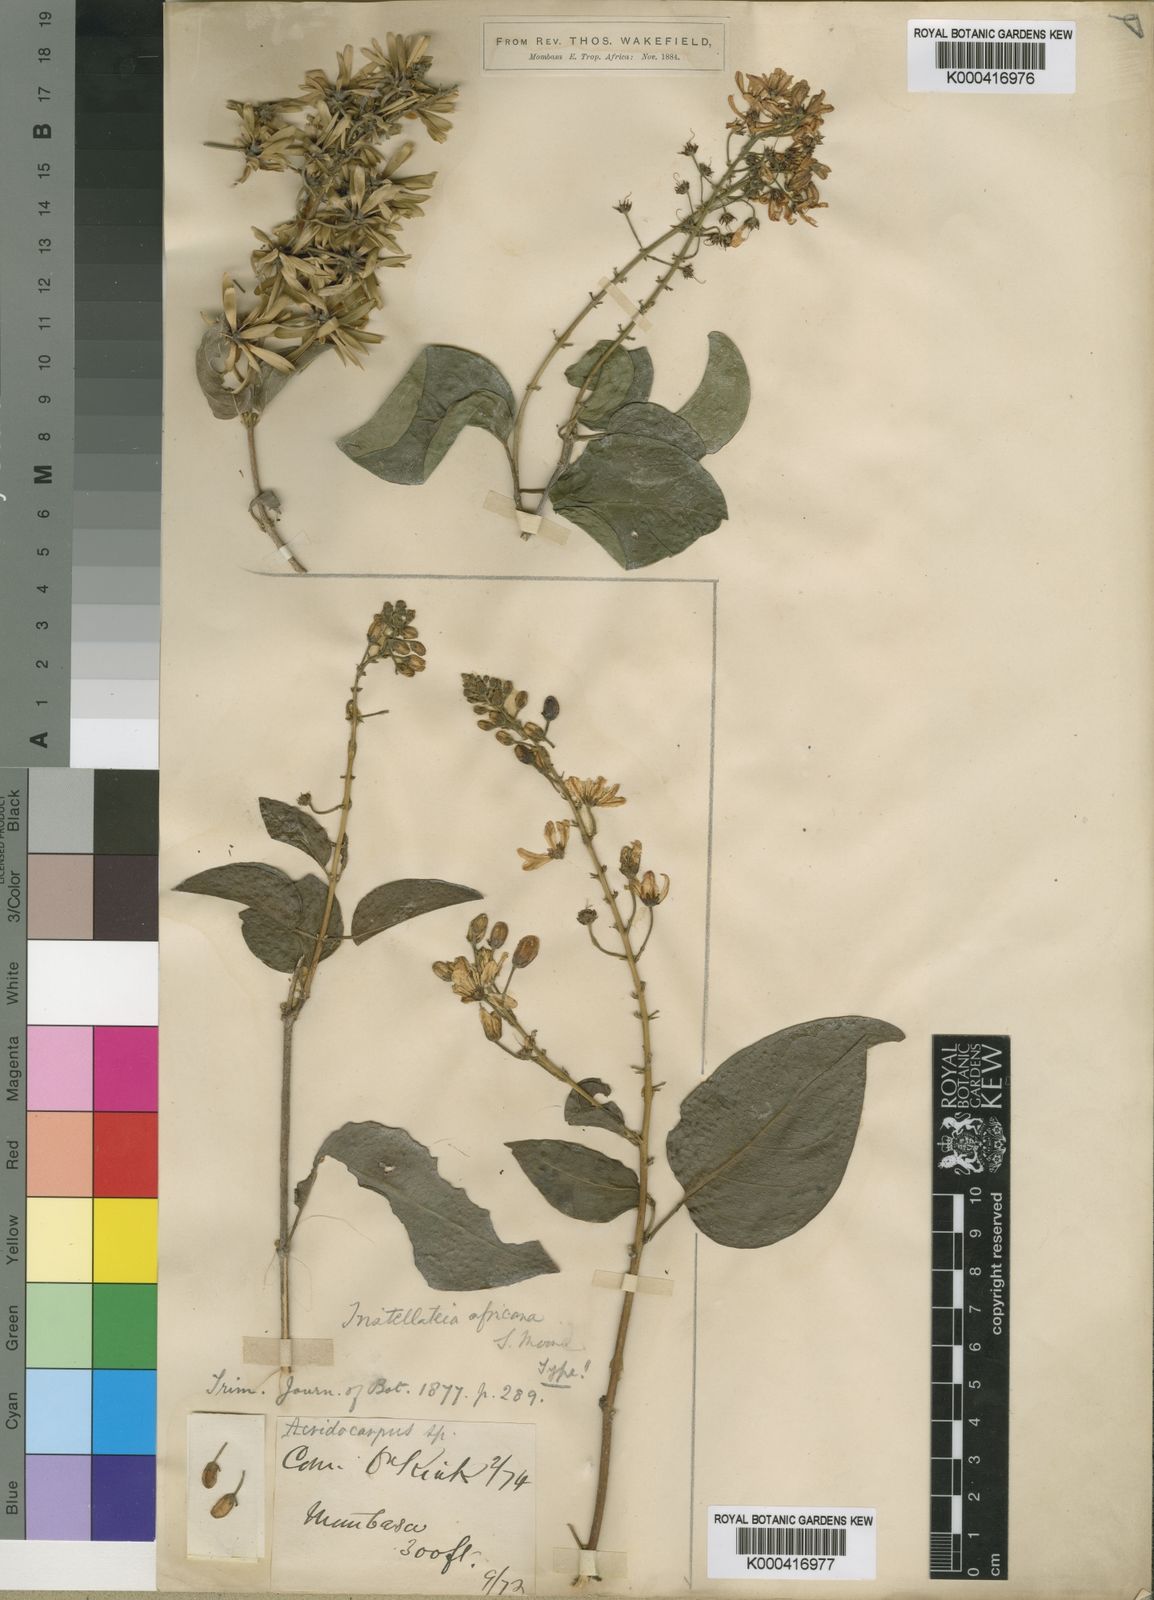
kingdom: Plantae
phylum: Tracheophyta
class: Magnoliopsida
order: Malpighiales
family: Malpighiaceae
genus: Tristellateia
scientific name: Tristellateia africana
